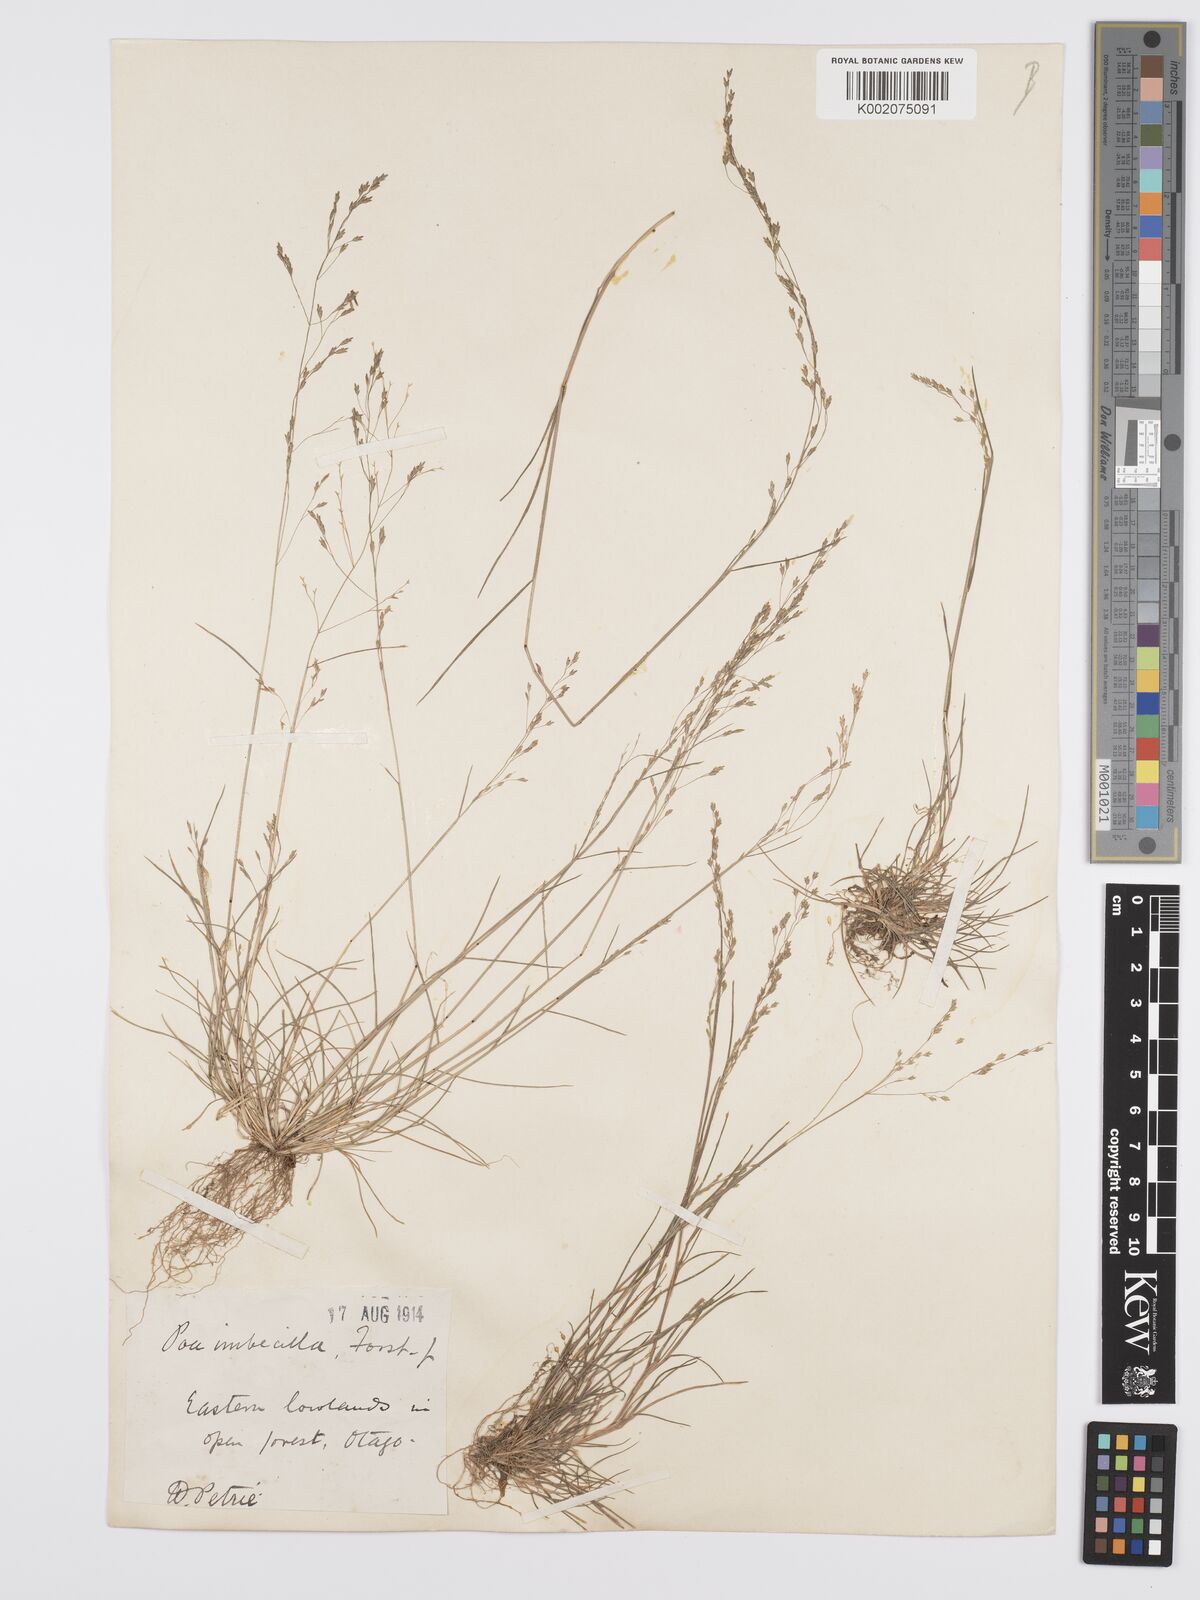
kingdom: Plantae
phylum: Tracheophyta
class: Liliopsida
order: Poales
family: Poaceae
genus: Poa
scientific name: Poa matthewsii
